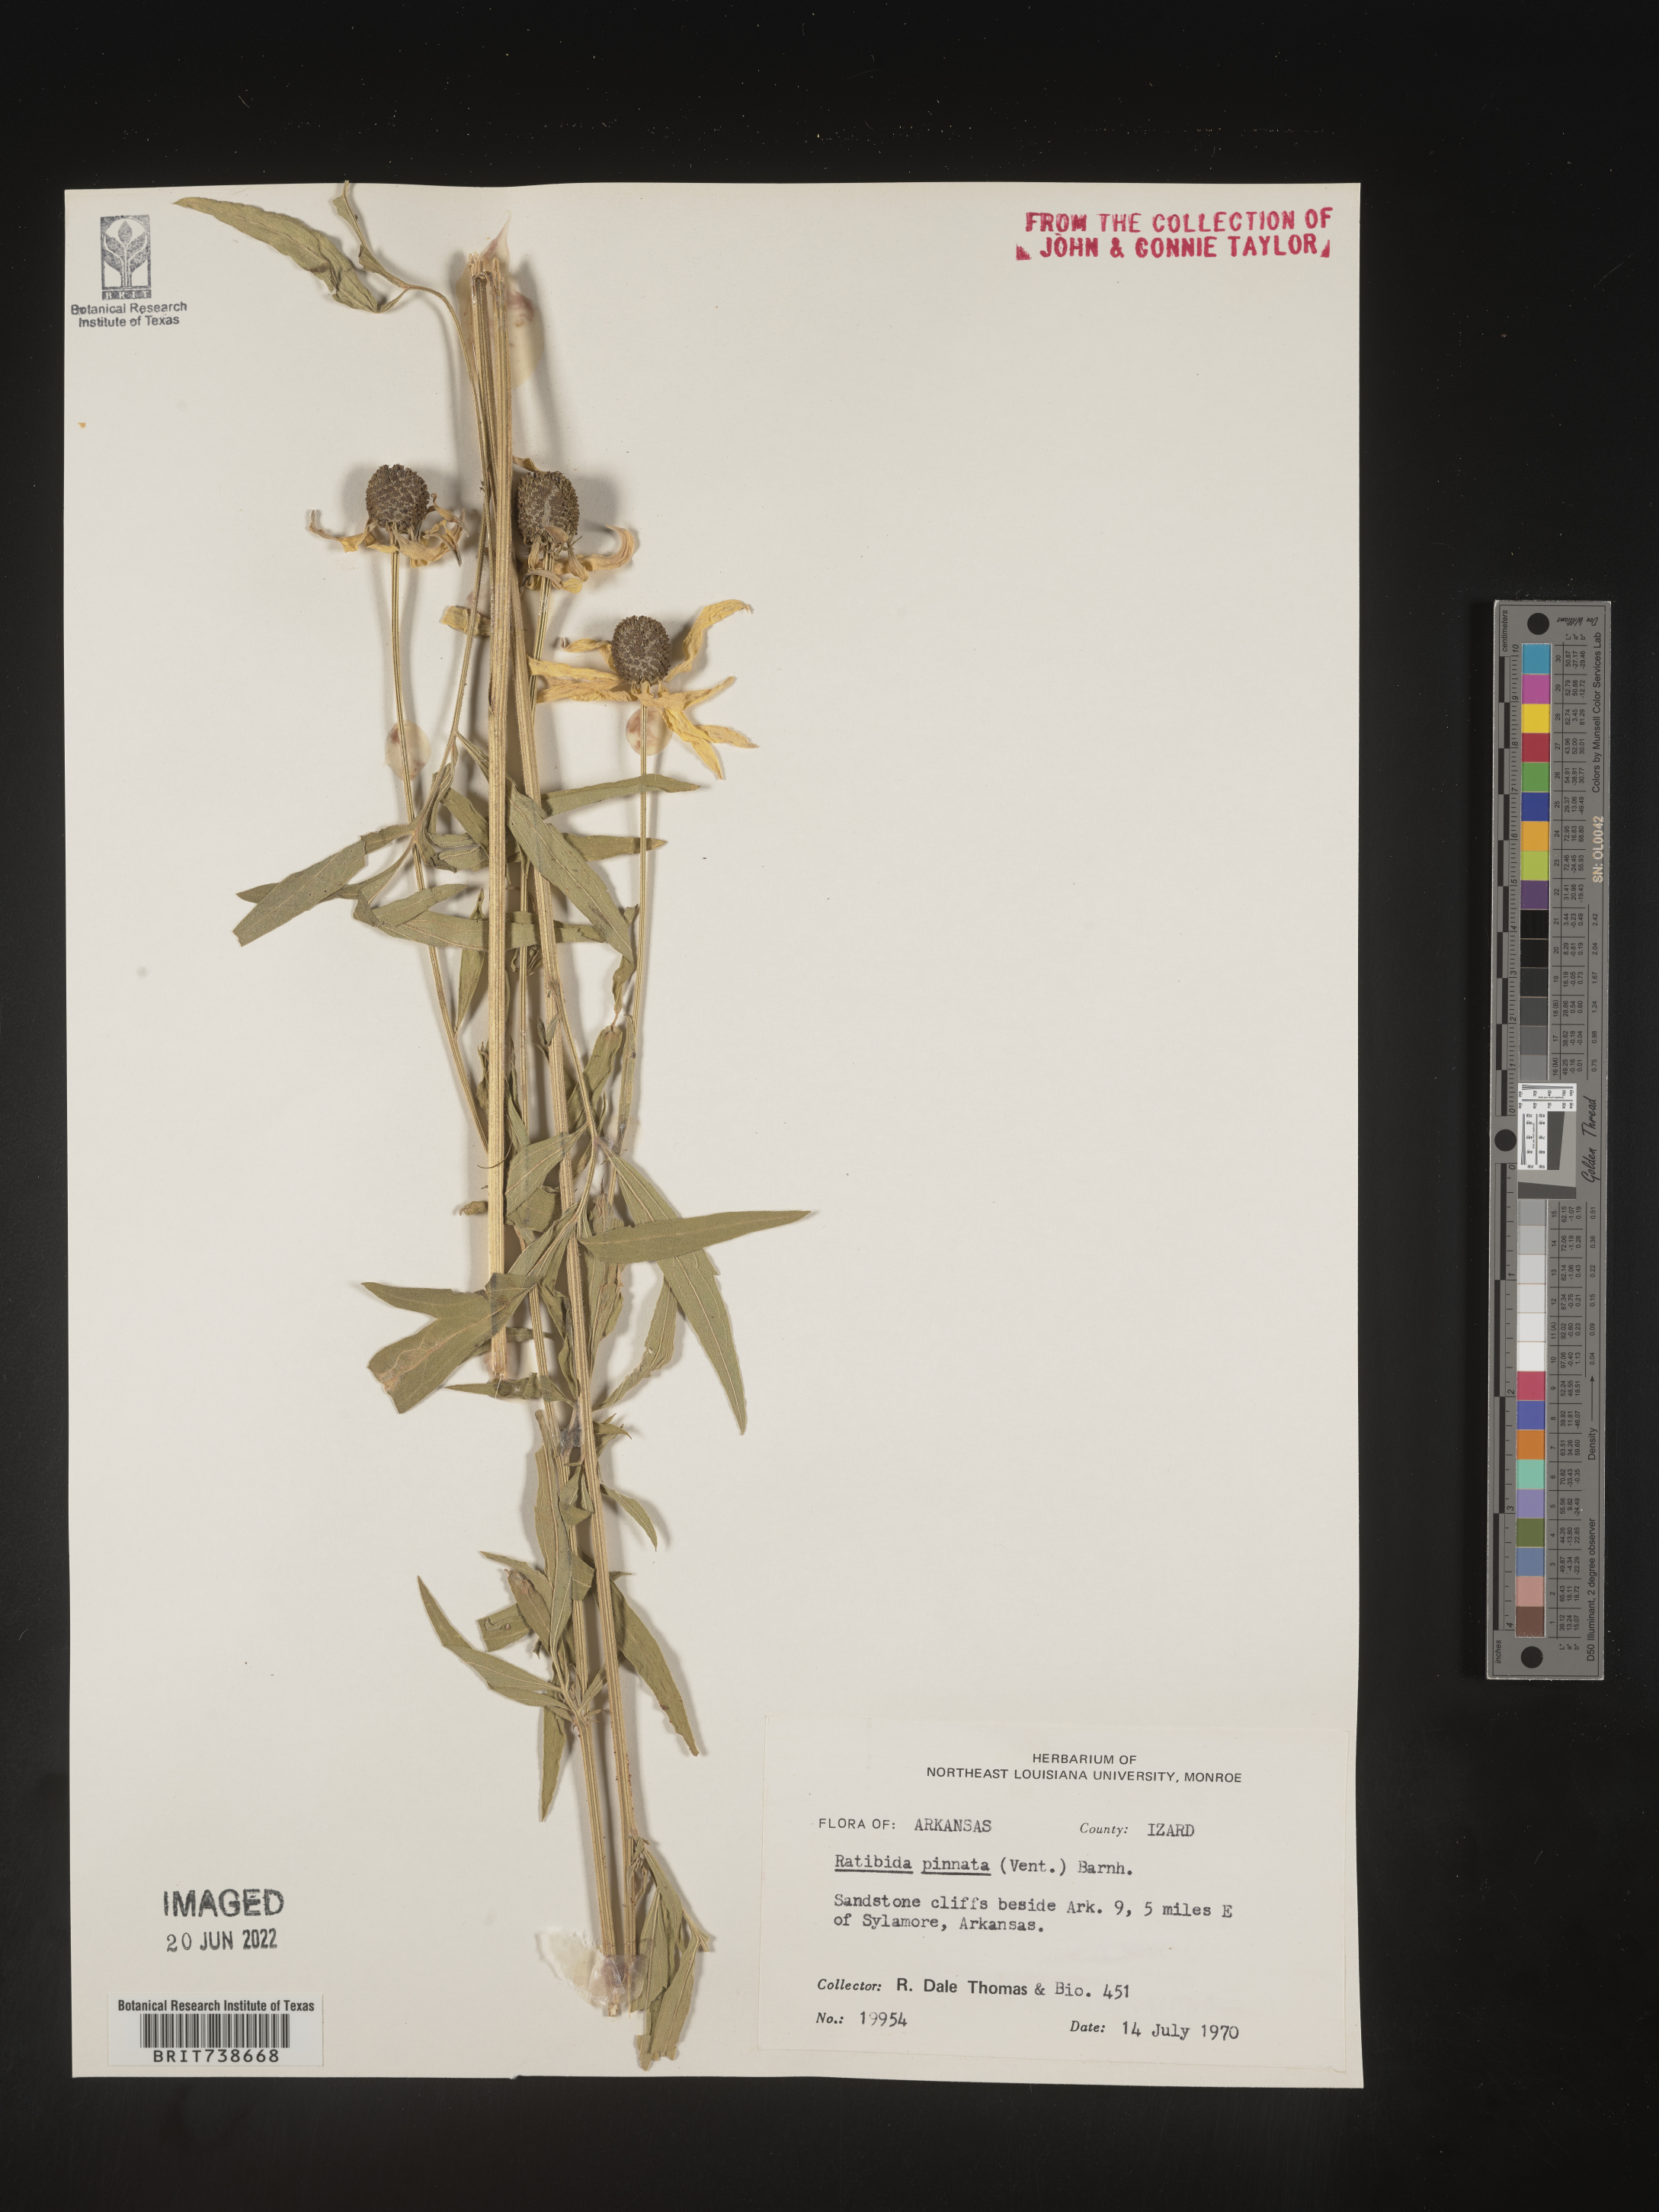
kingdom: Plantae
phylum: Tracheophyta
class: Magnoliopsida
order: Asterales
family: Asteraceae
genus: Ratibida
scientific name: Ratibida pinnata
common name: Drooping prairie-coneflower
